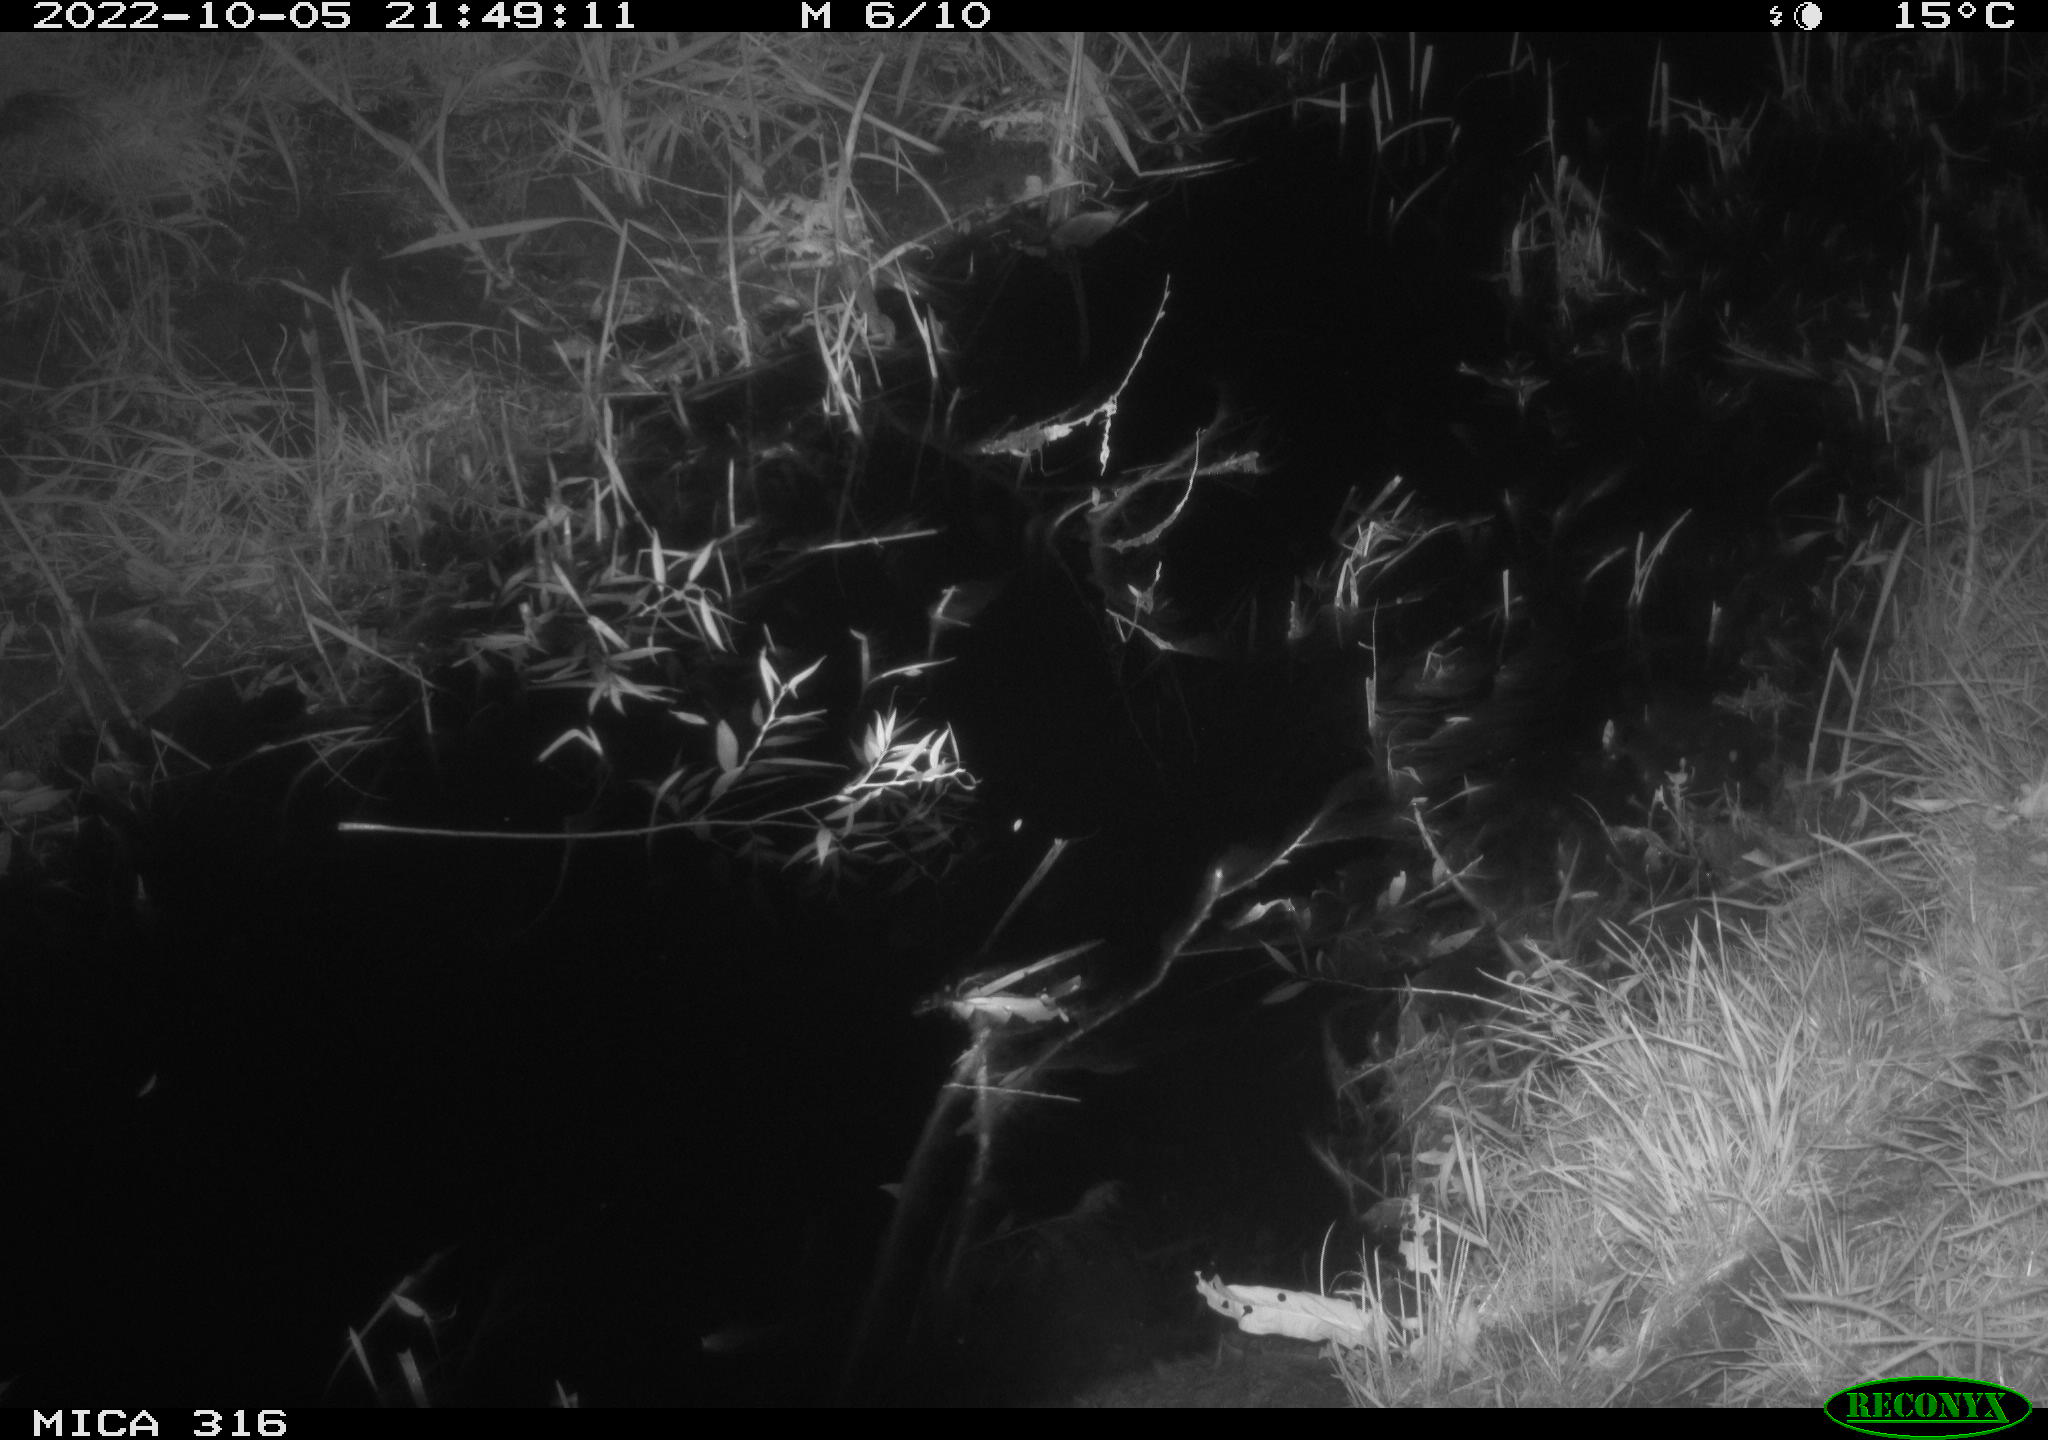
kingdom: Animalia
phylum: Chordata
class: Mammalia
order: Carnivora
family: Canidae
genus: Vulpes
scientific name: Vulpes vulpes
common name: Red fox
